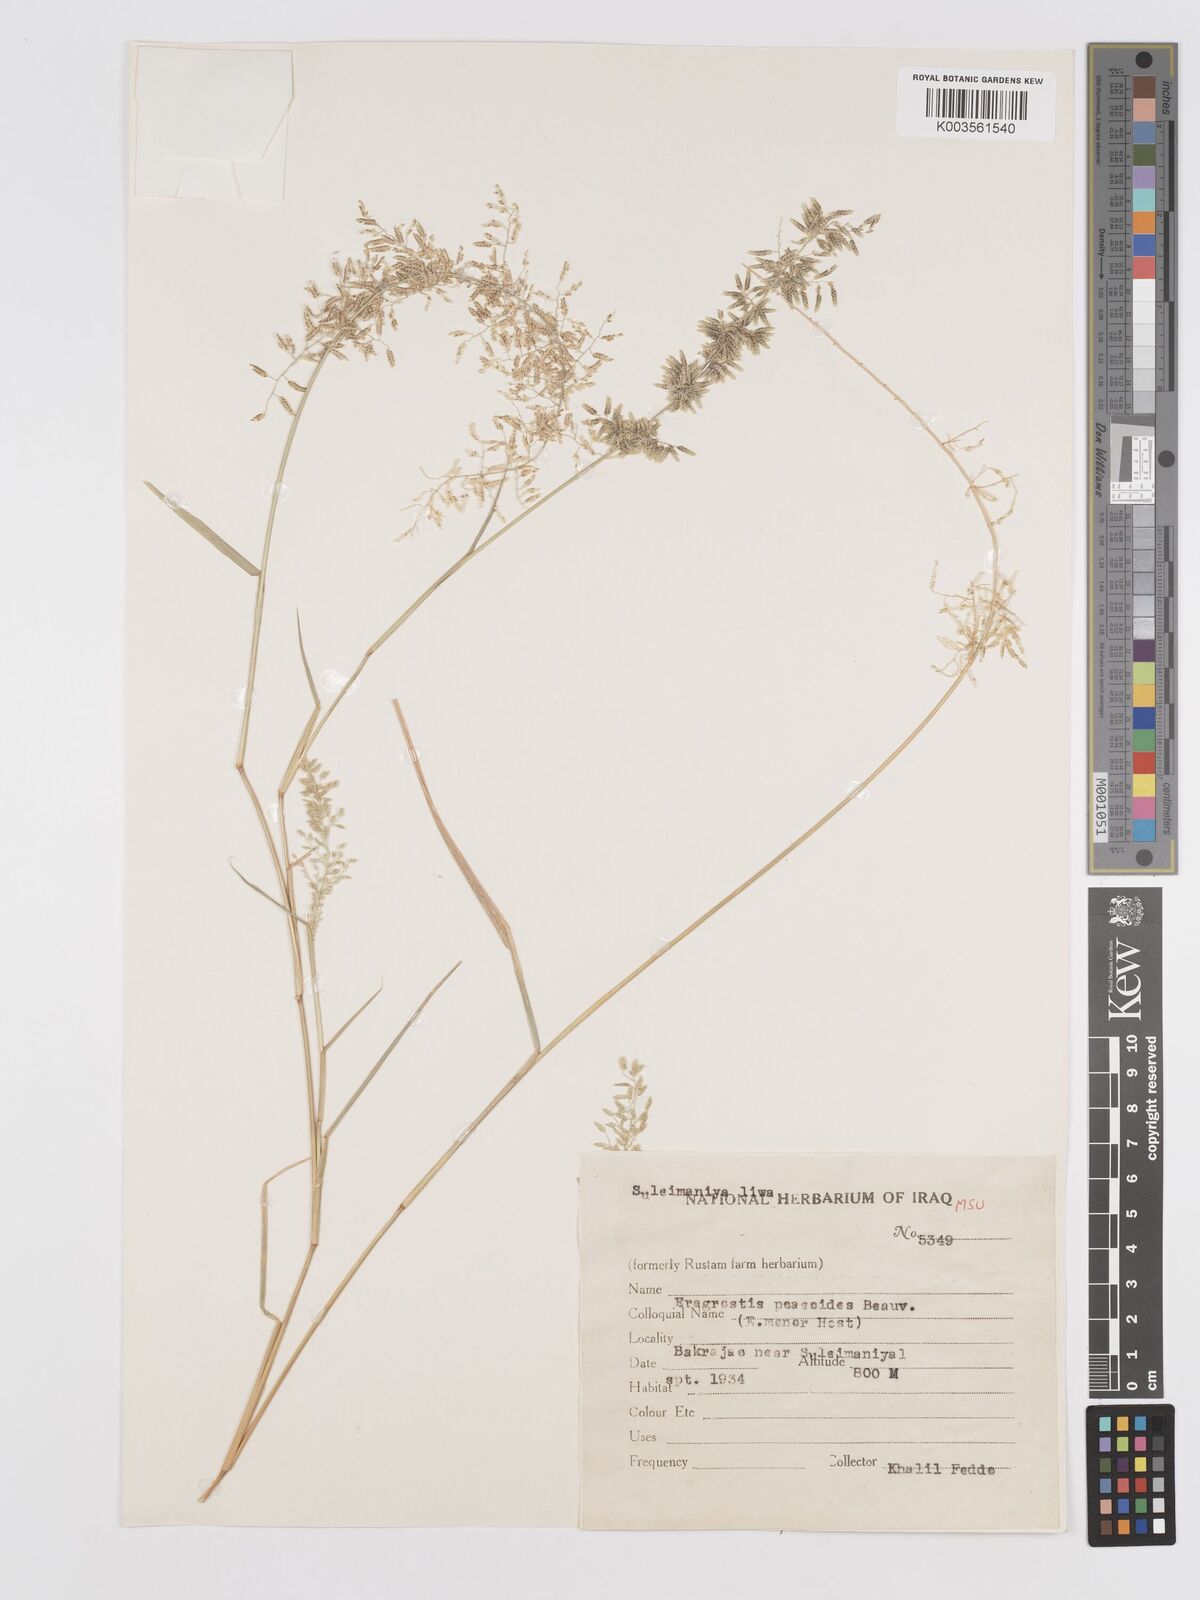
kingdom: Plantae
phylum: Tracheophyta
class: Liliopsida
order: Poales
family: Poaceae
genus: Eragrostis
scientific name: Eragrostis minor
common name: Small love-grass
